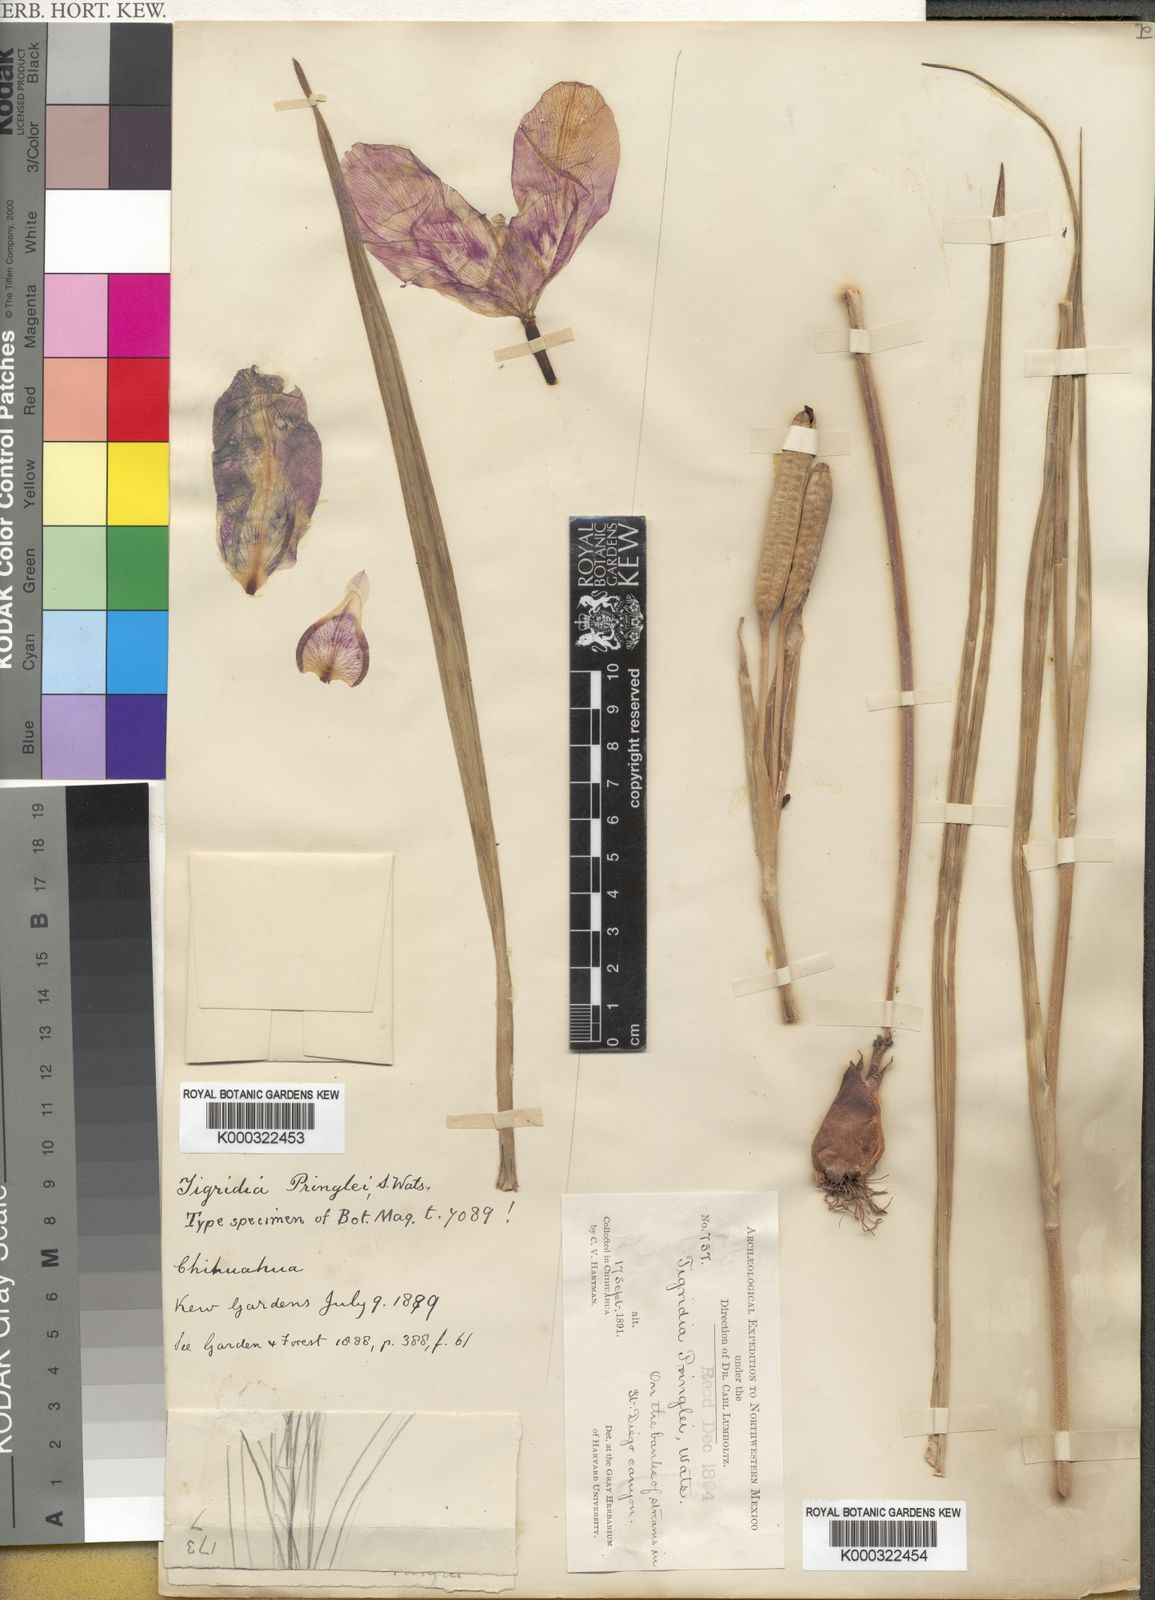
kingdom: Plantae
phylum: Tracheophyta
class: Liliopsida
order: Asparagales
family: Iridaceae
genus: Tigridia
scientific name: Tigridia
